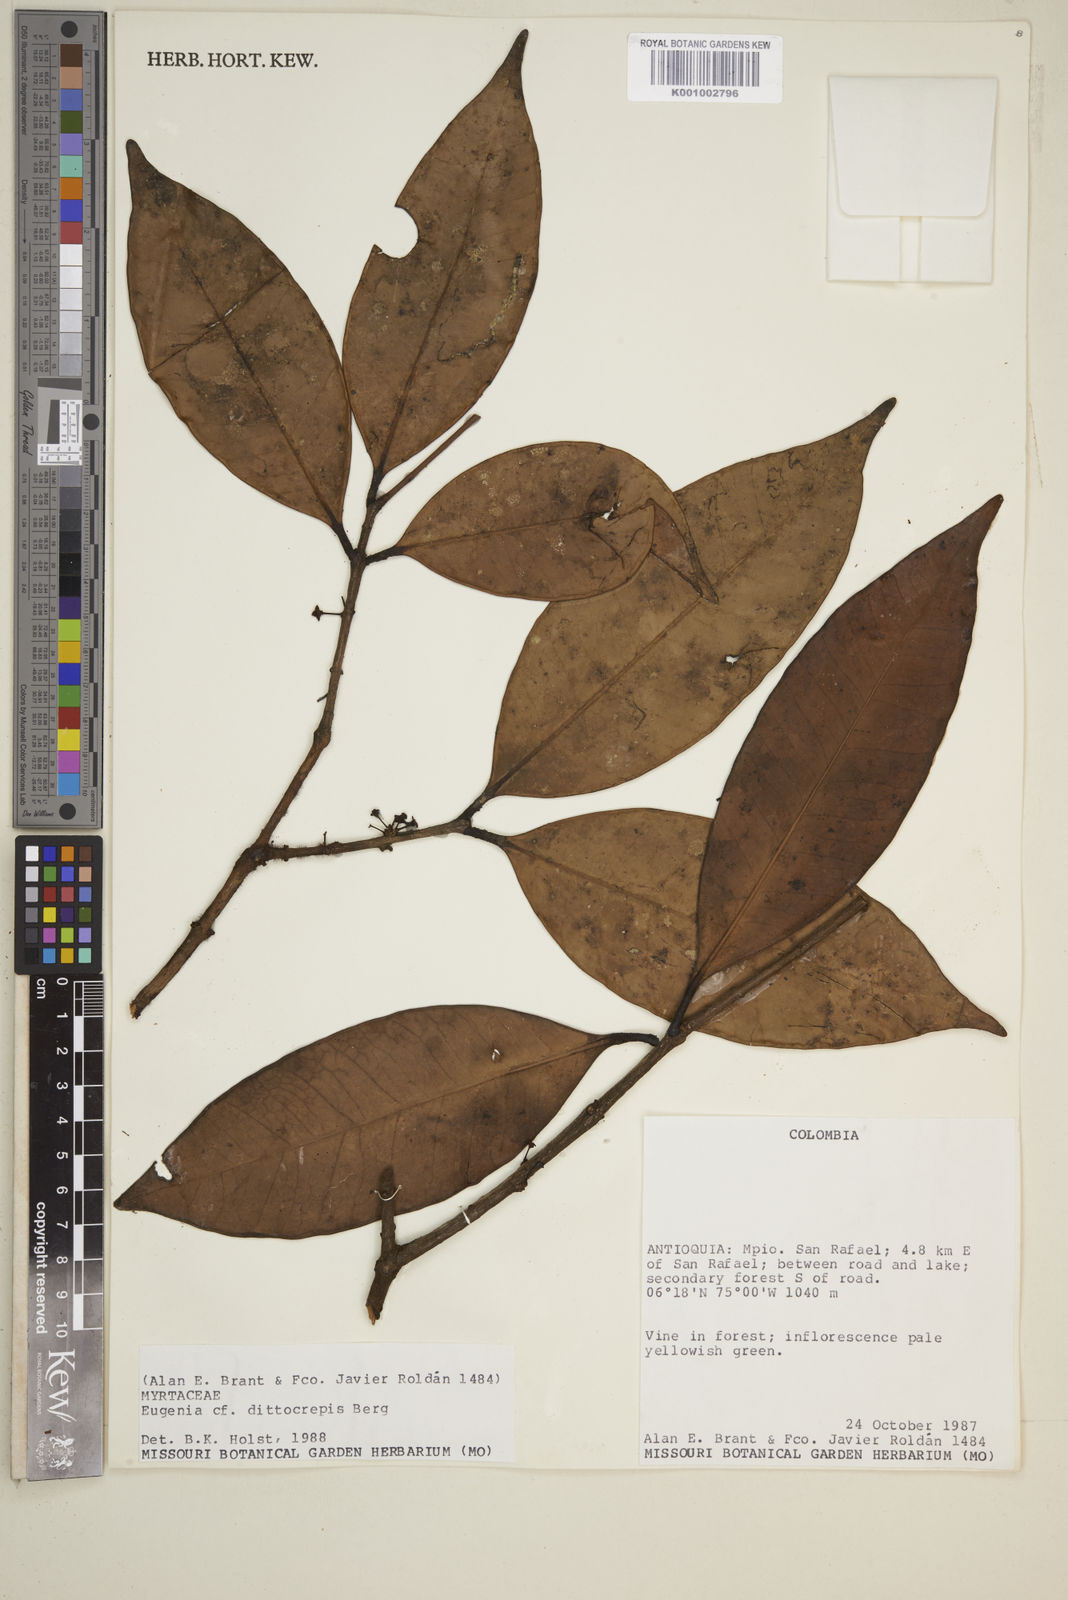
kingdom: Plantae
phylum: Tracheophyta
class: Magnoliopsida
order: Myrtales
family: Myrtaceae
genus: Eugenia
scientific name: Eugenia dittocrepis
